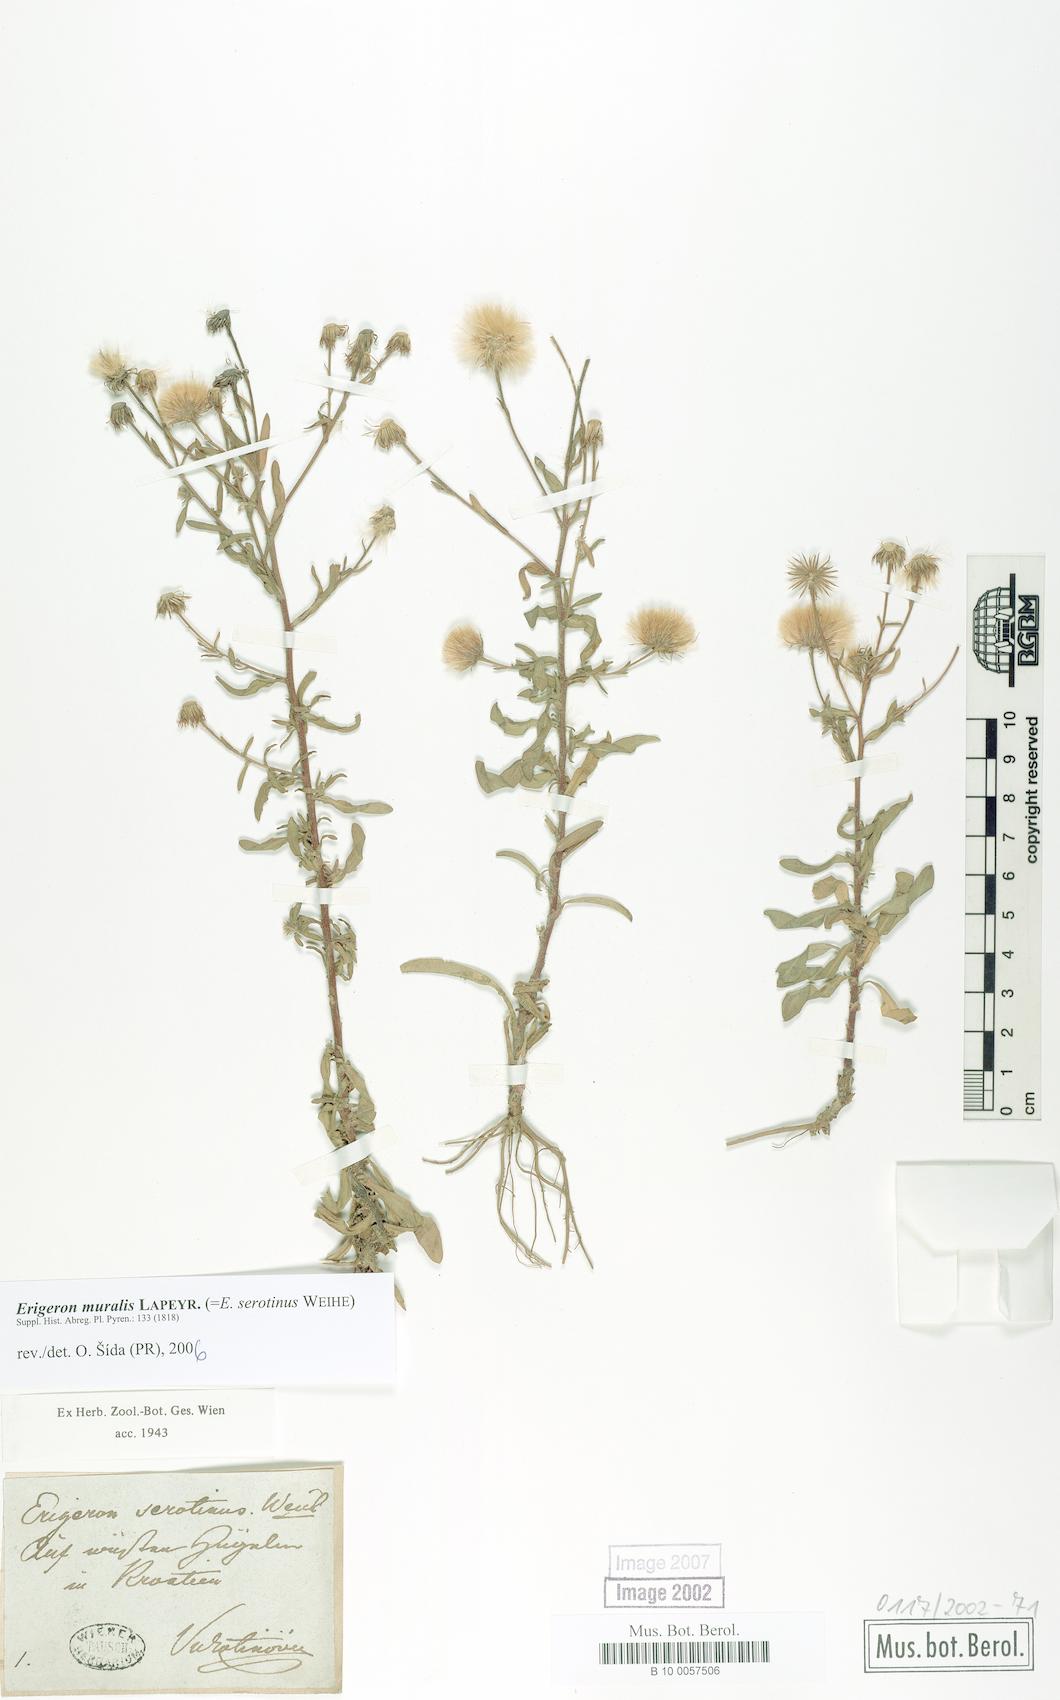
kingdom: Plantae
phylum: Tracheophyta
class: Magnoliopsida
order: Asterales
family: Asteraceae
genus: Erigeron
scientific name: Erigeron muralis
